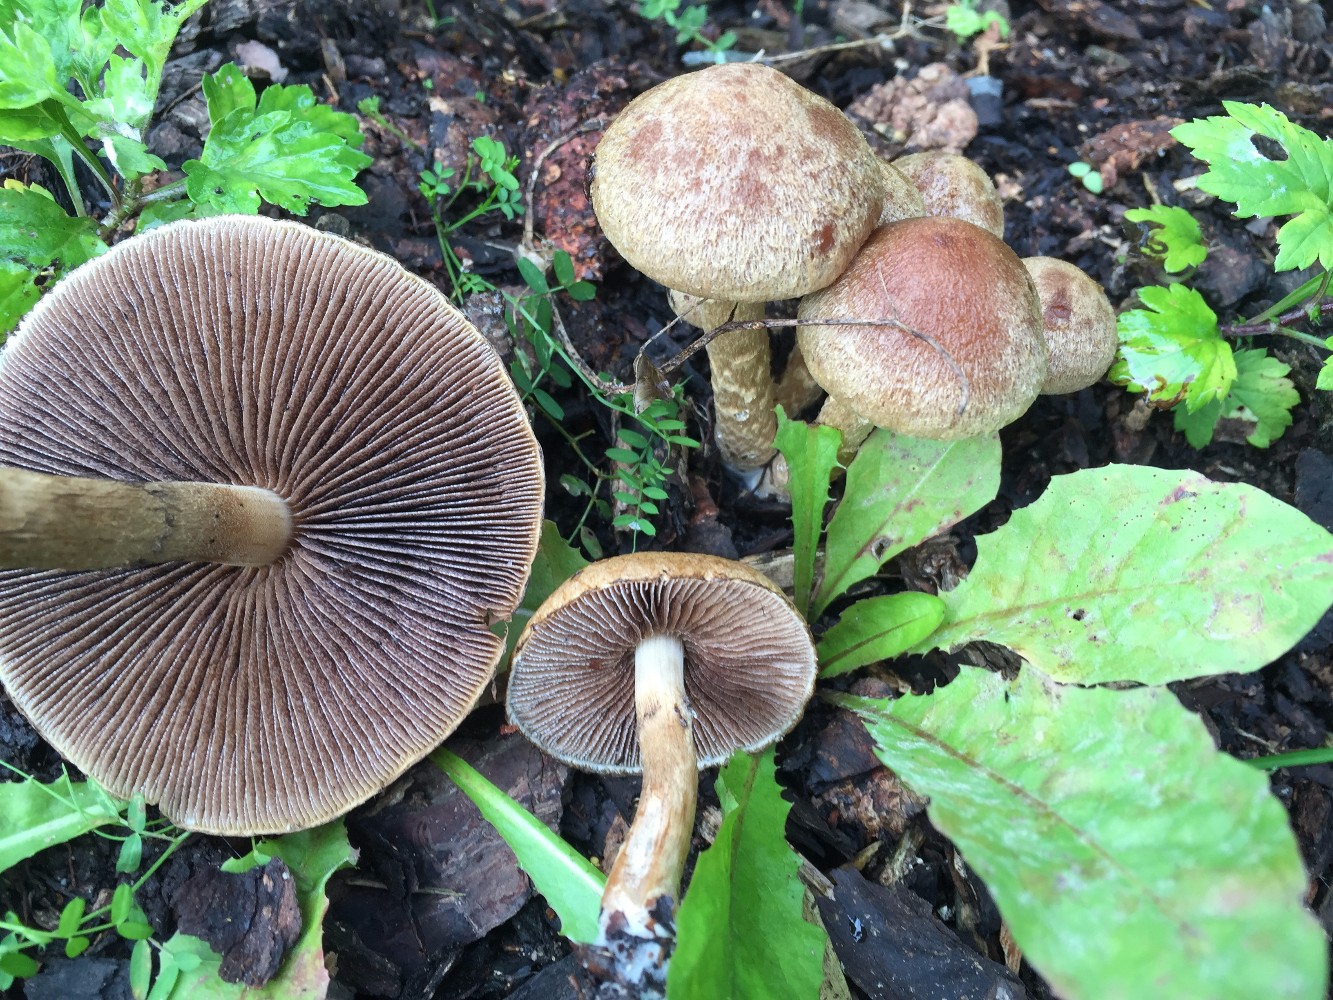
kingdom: Fungi
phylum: Basidiomycota
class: Agaricomycetes
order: Agaricales
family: Psathyrellaceae
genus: Lacrymaria
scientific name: Lacrymaria lacrymabunda
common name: grædende mørkhat
